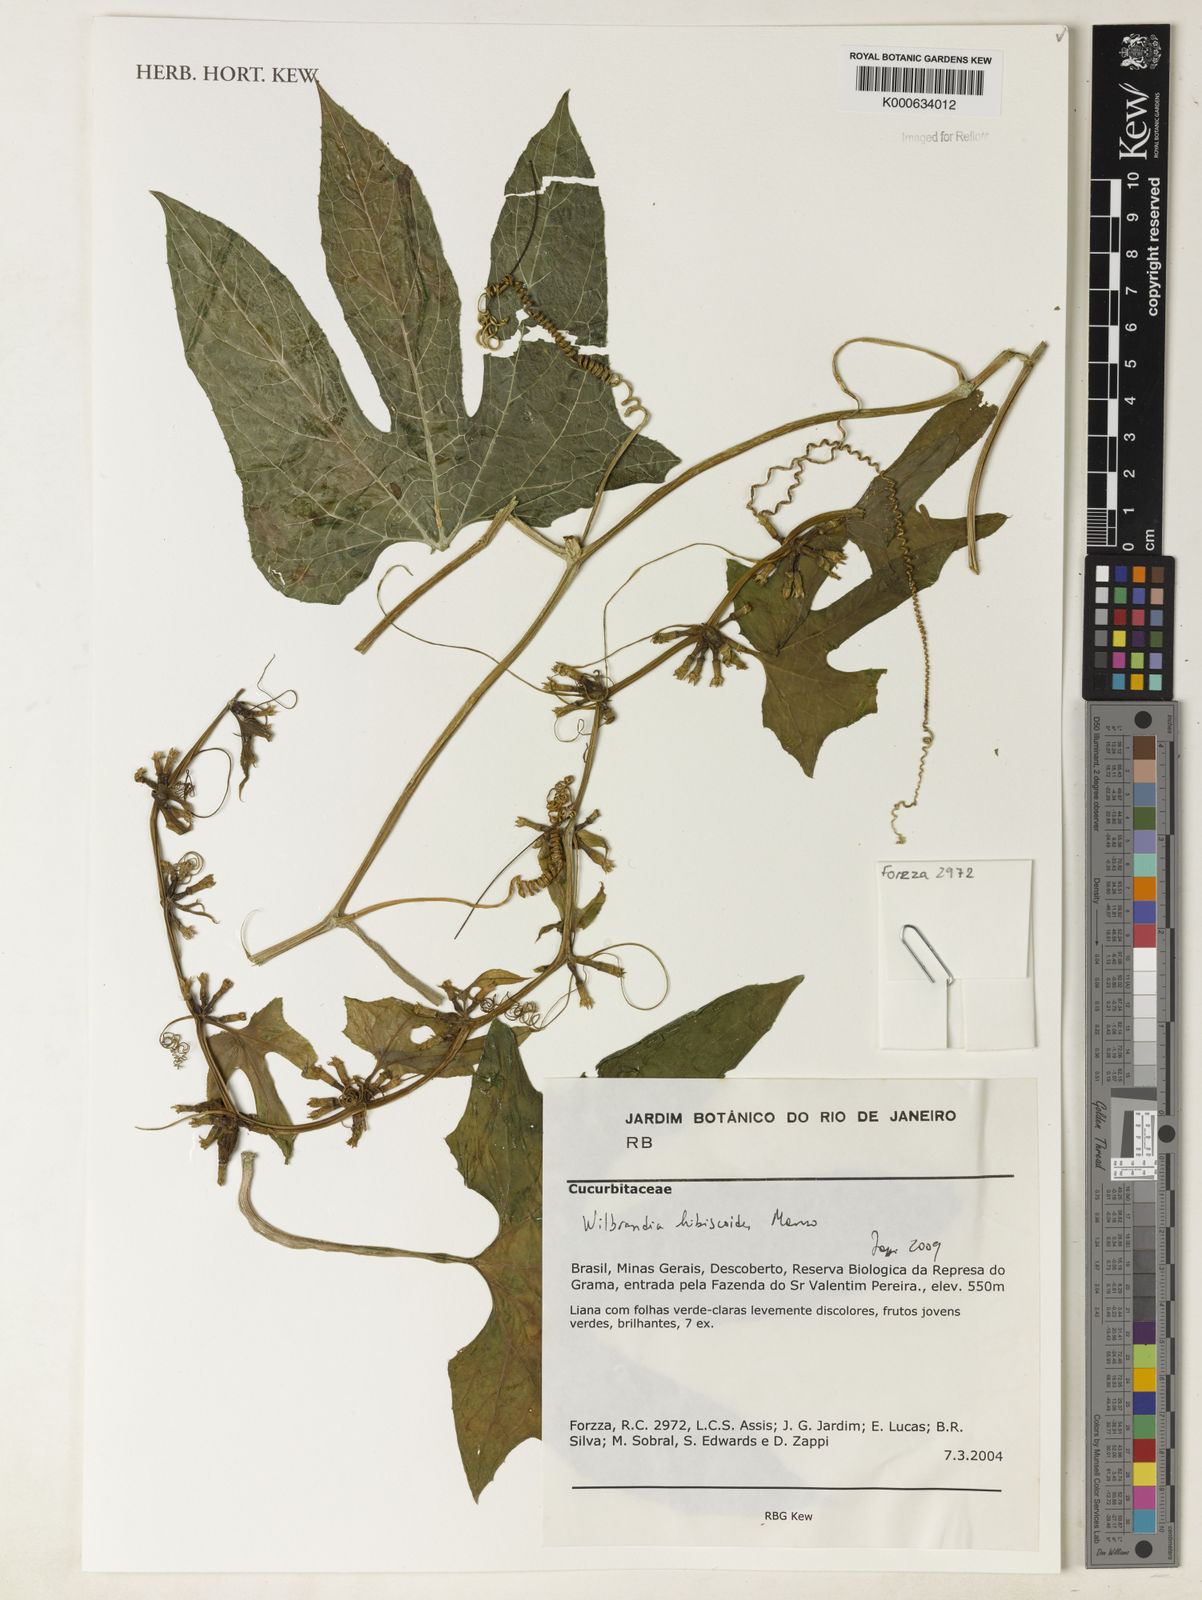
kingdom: Plantae
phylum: Tracheophyta
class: Magnoliopsida
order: Cucurbitales
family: Cucurbitaceae
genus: Wilbrandia
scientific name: Wilbrandia hibiscoides
